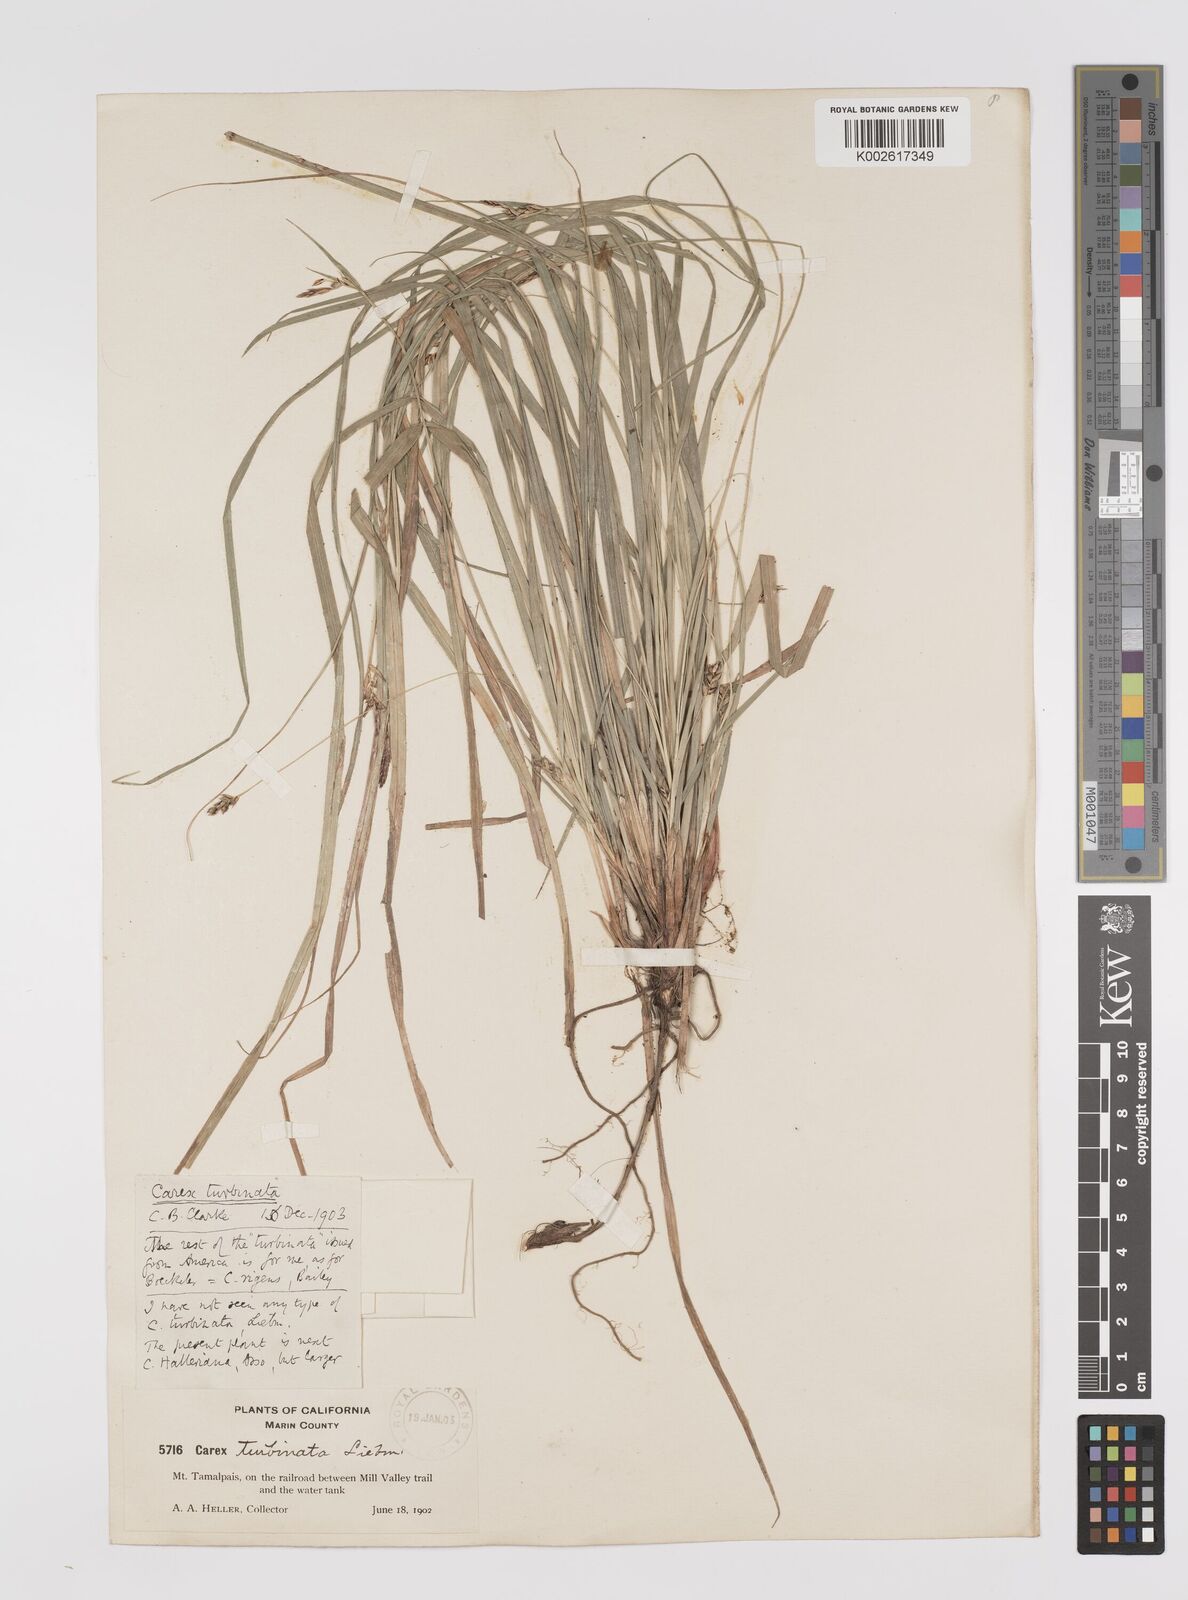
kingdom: Plantae
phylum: Tracheophyta
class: Liliopsida
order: Poales
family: Cyperaceae
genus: Carex
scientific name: Carex turbinata
